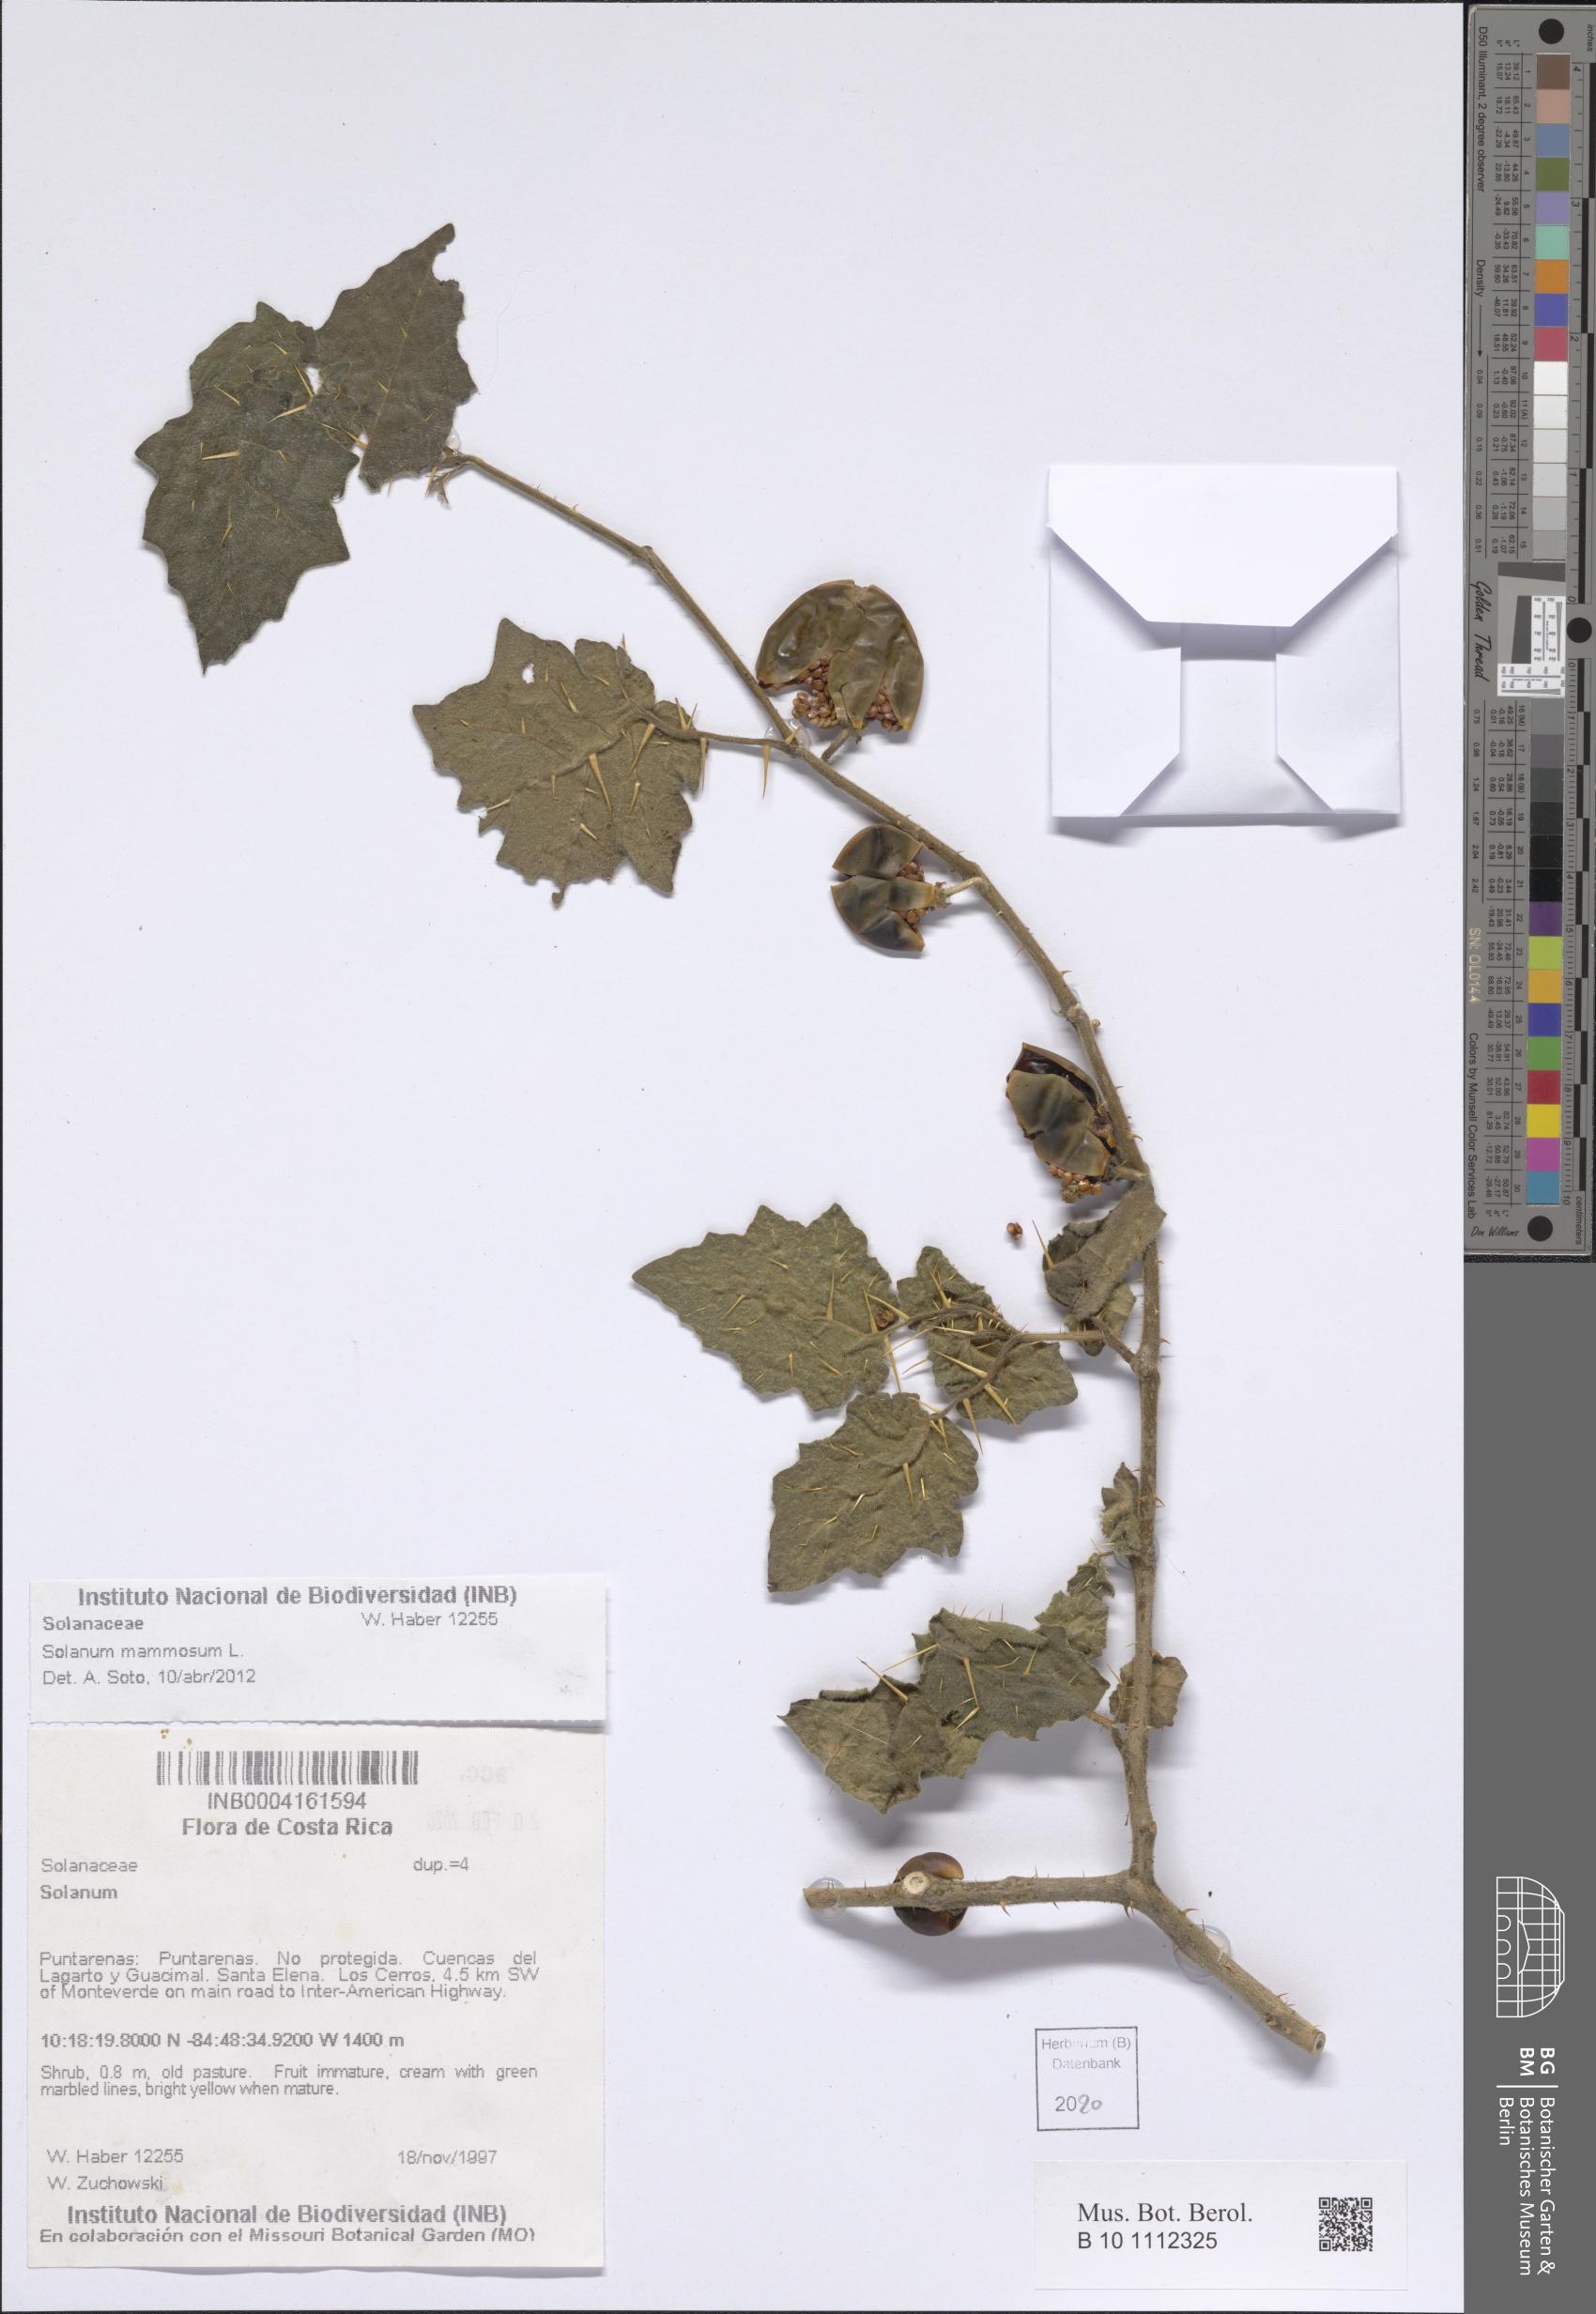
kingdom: Plantae
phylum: Tracheophyta
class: Magnoliopsida
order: Solanales
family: Solanaceae
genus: Solanum
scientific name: Solanum mammosum
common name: Nipple fruit
